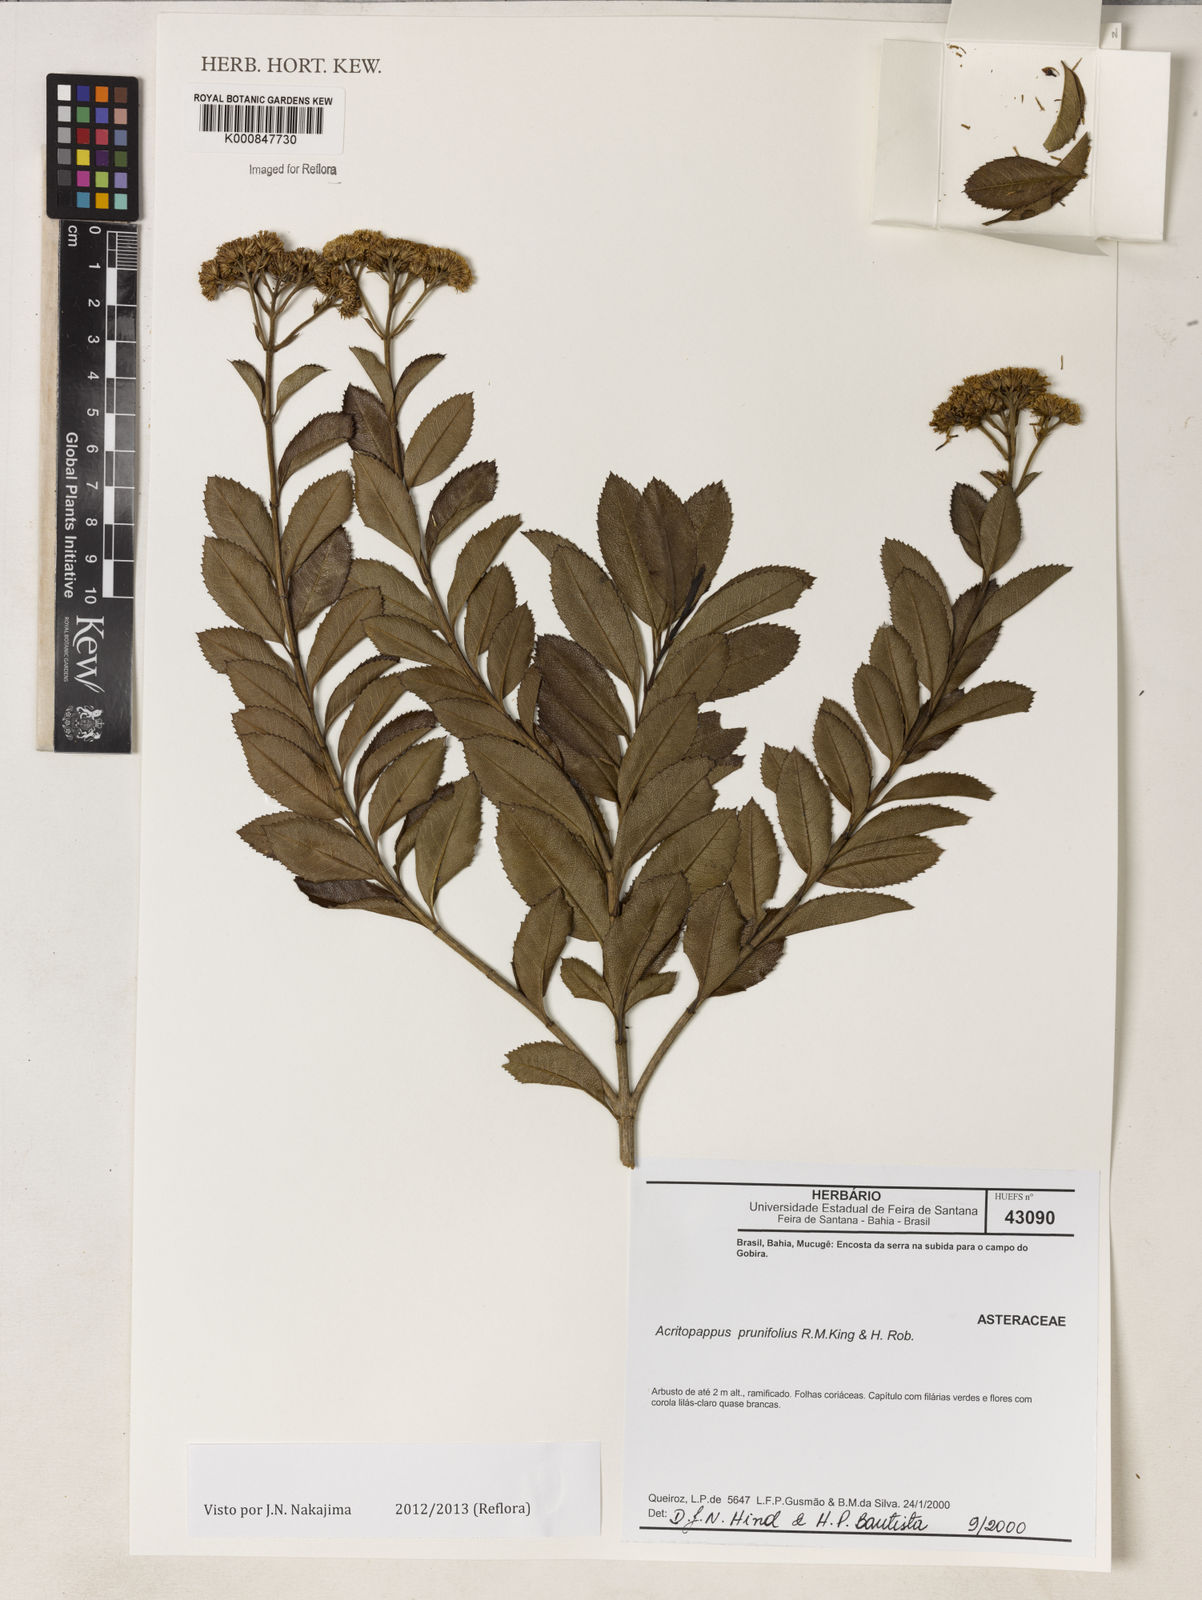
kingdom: Plantae
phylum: Tracheophyta
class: Magnoliopsida
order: Asterales
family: Asteraceae
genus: Acritopappus
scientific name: Acritopappus prunifolius
